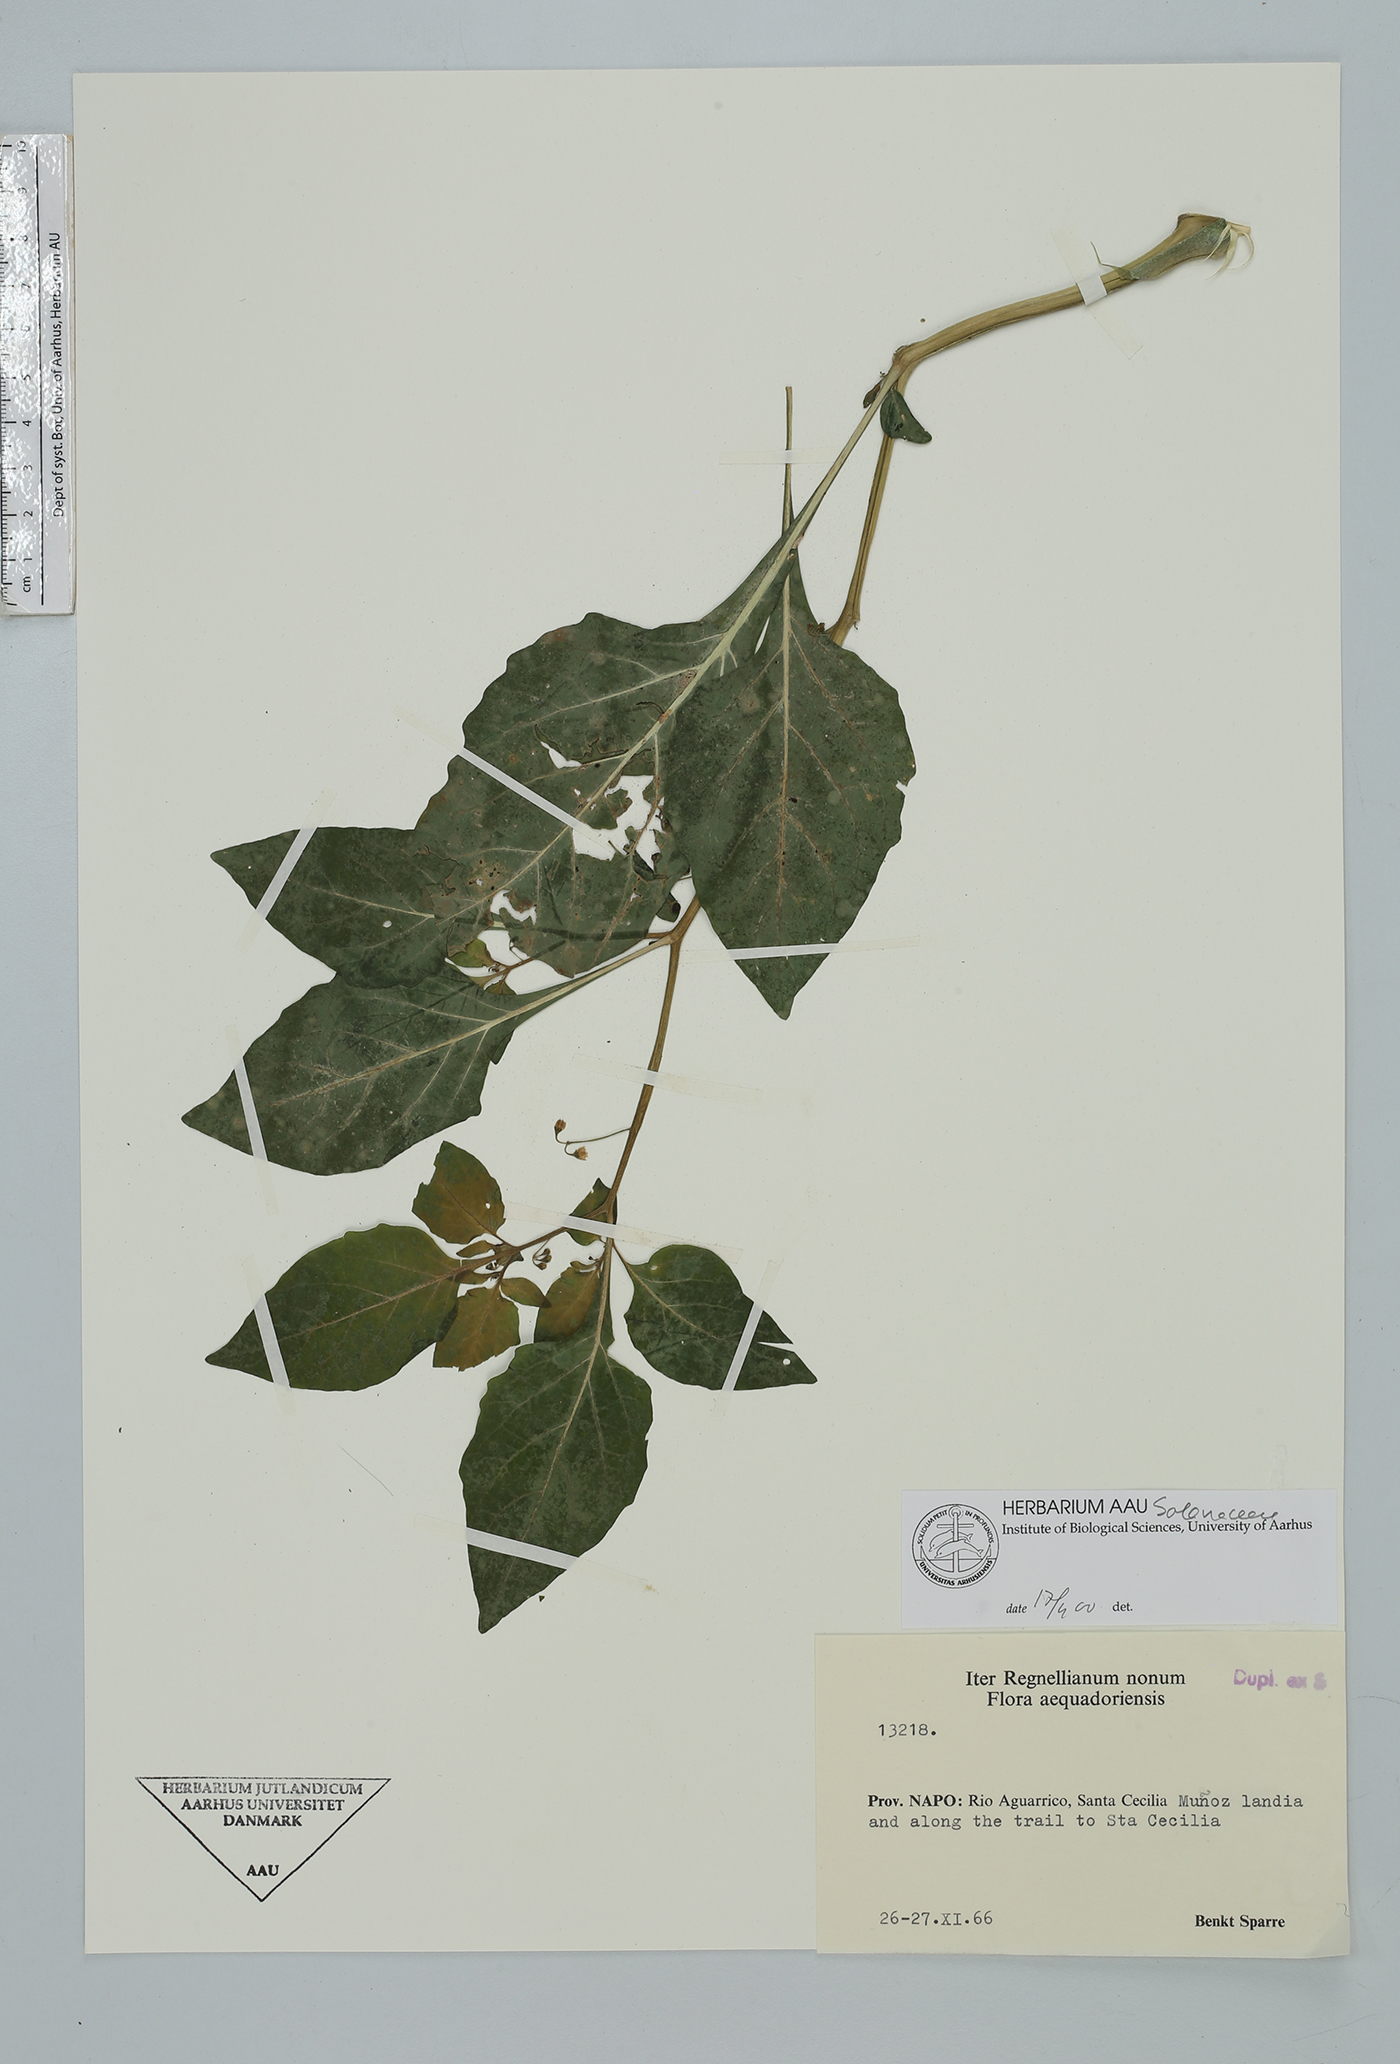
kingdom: Plantae
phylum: Tracheophyta
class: Magnoliopsida
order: Solanales
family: Solanaceae
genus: Solanum
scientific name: Solanum americanum
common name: American black nightshade
